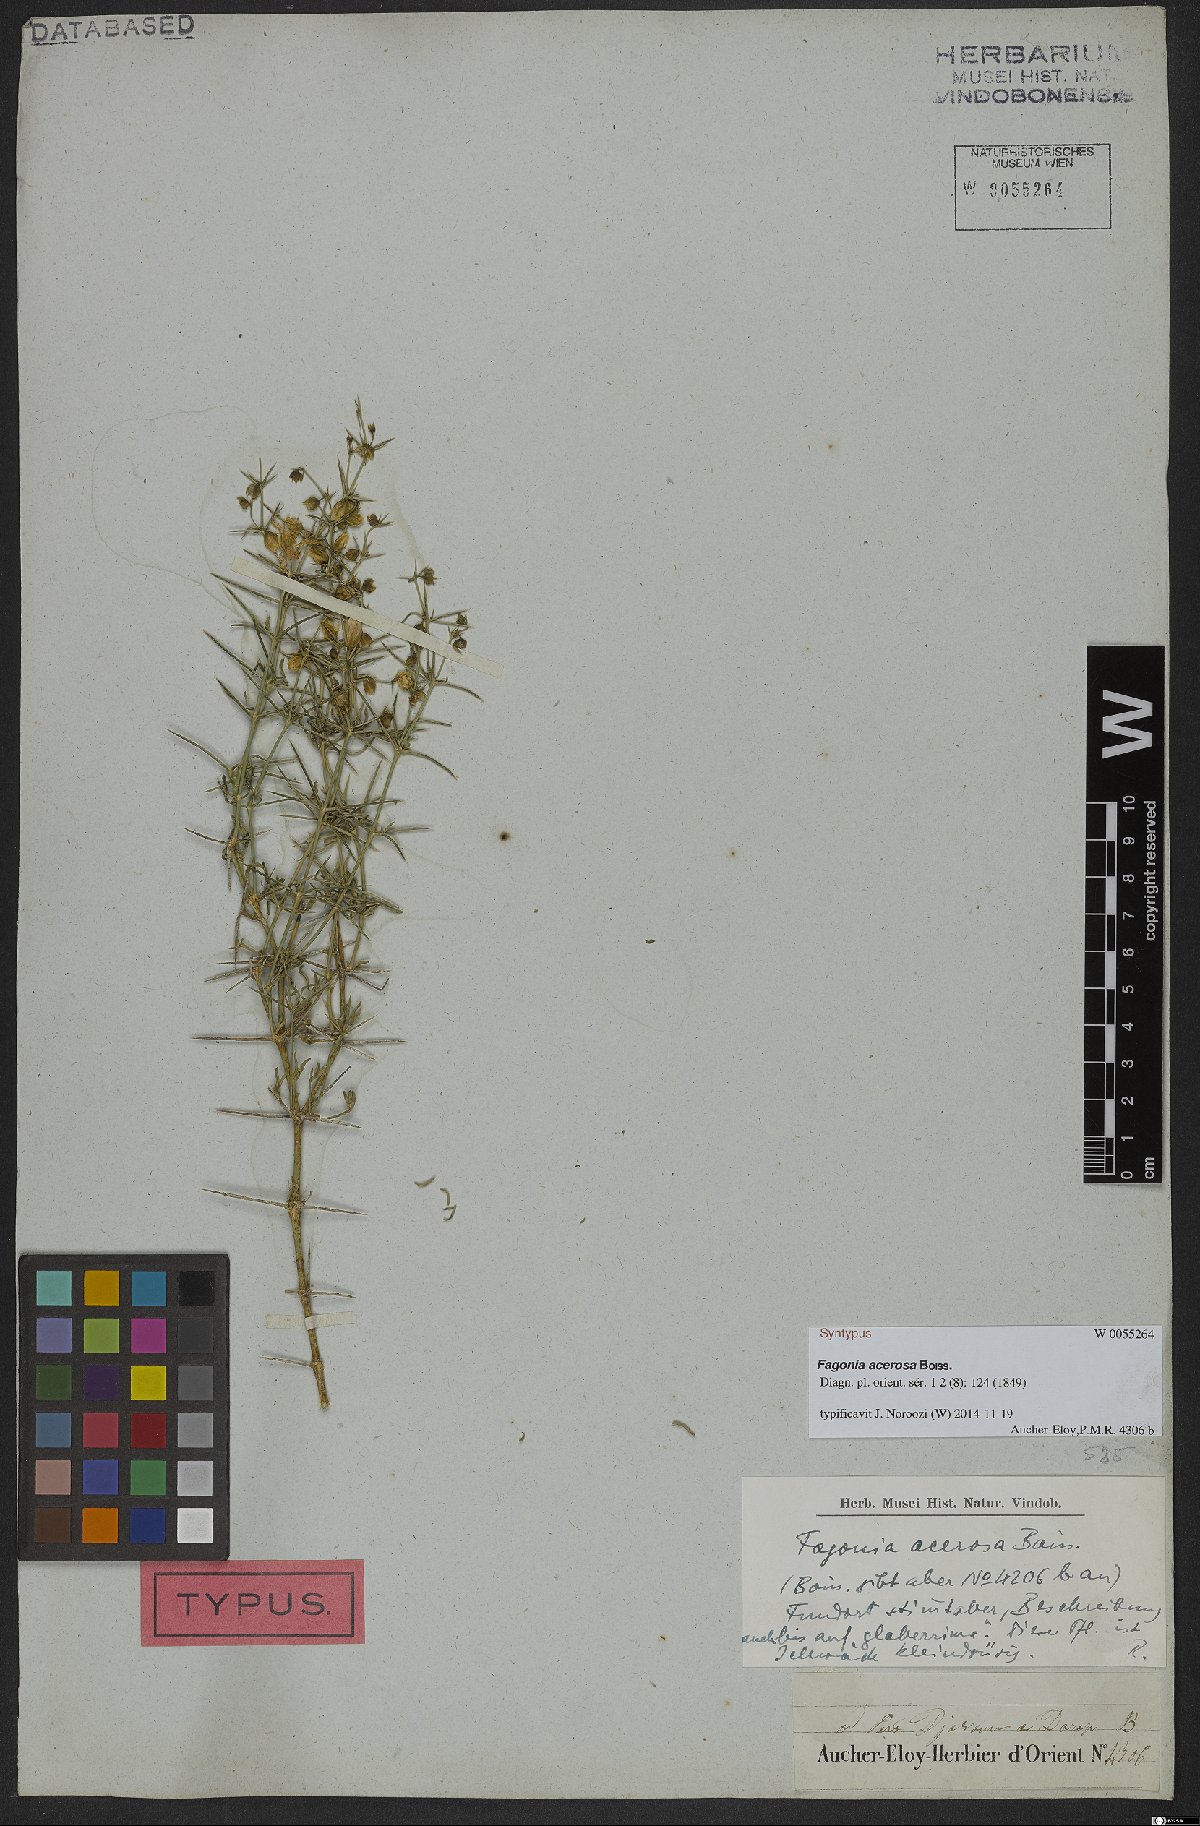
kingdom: Plantae
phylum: Tracheophyta
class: Magnoliopsida
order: Zygophyllales
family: Zygophyllaceae
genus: Fagonia
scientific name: Fagonia acerosa
